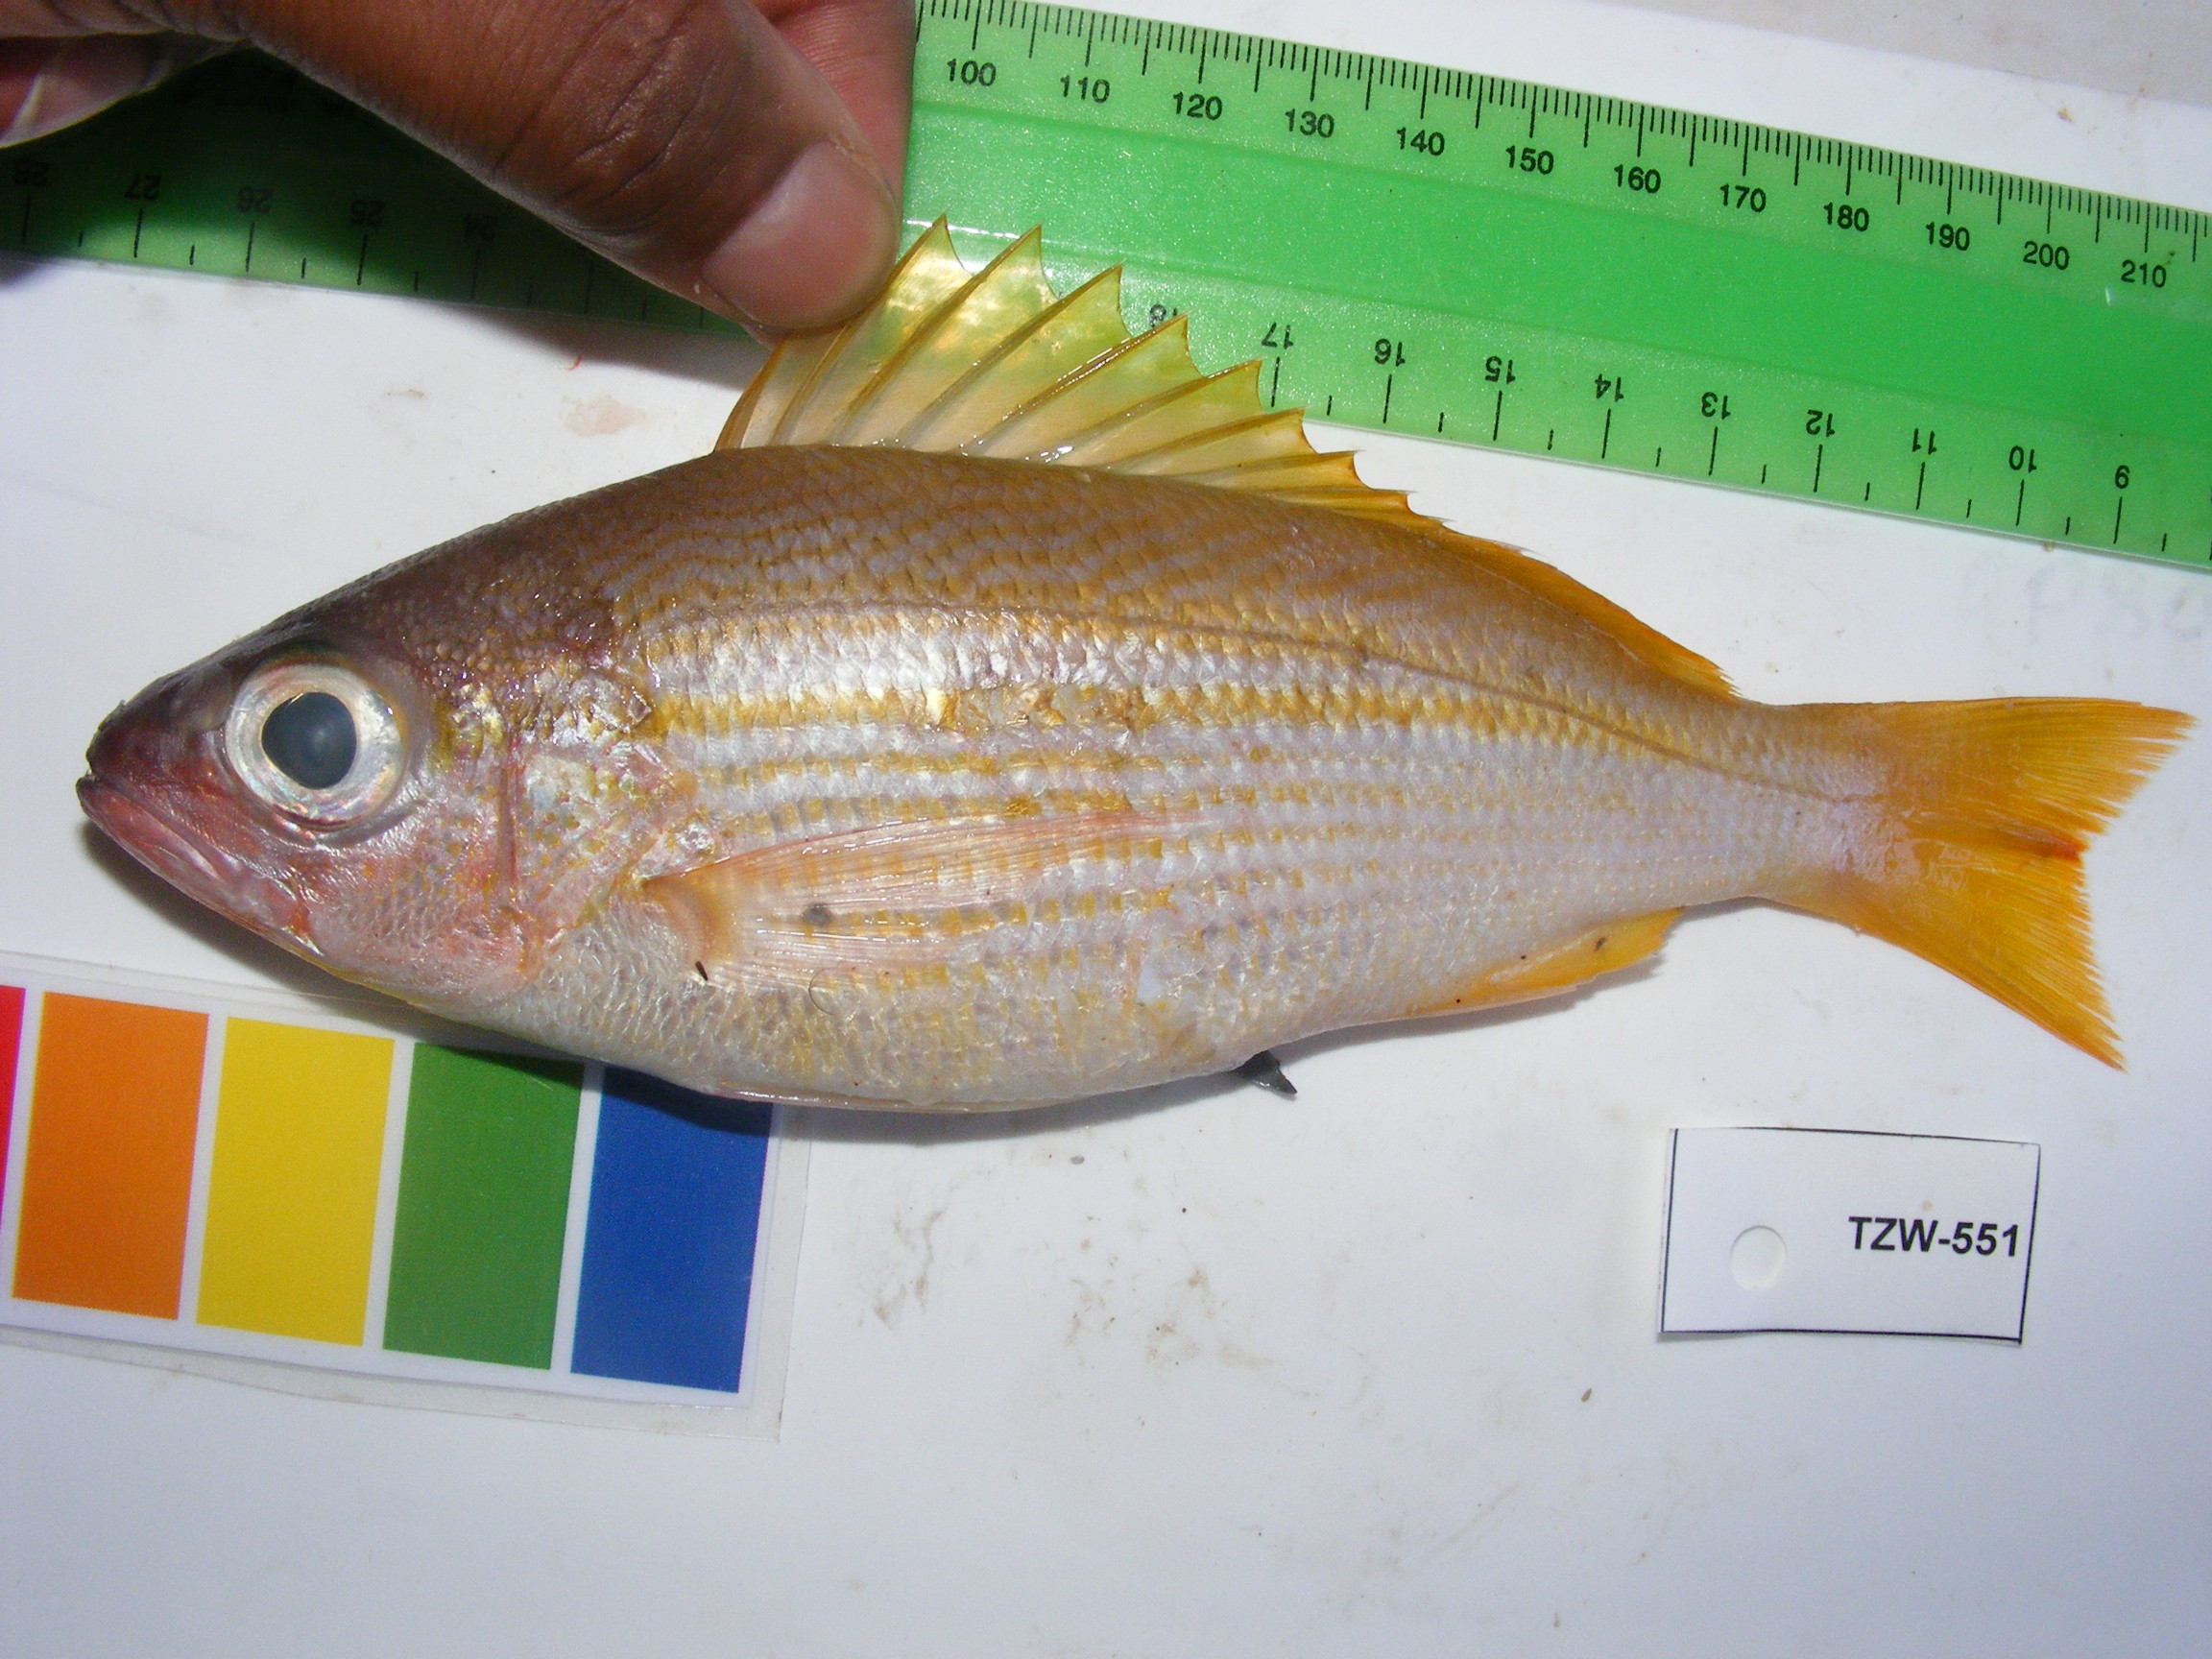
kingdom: Animalia
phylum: Chordata
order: Perciformes
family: Lutjanidae
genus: Lutjanus
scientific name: Lutjanus lutjanus
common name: Bigeye snapper
